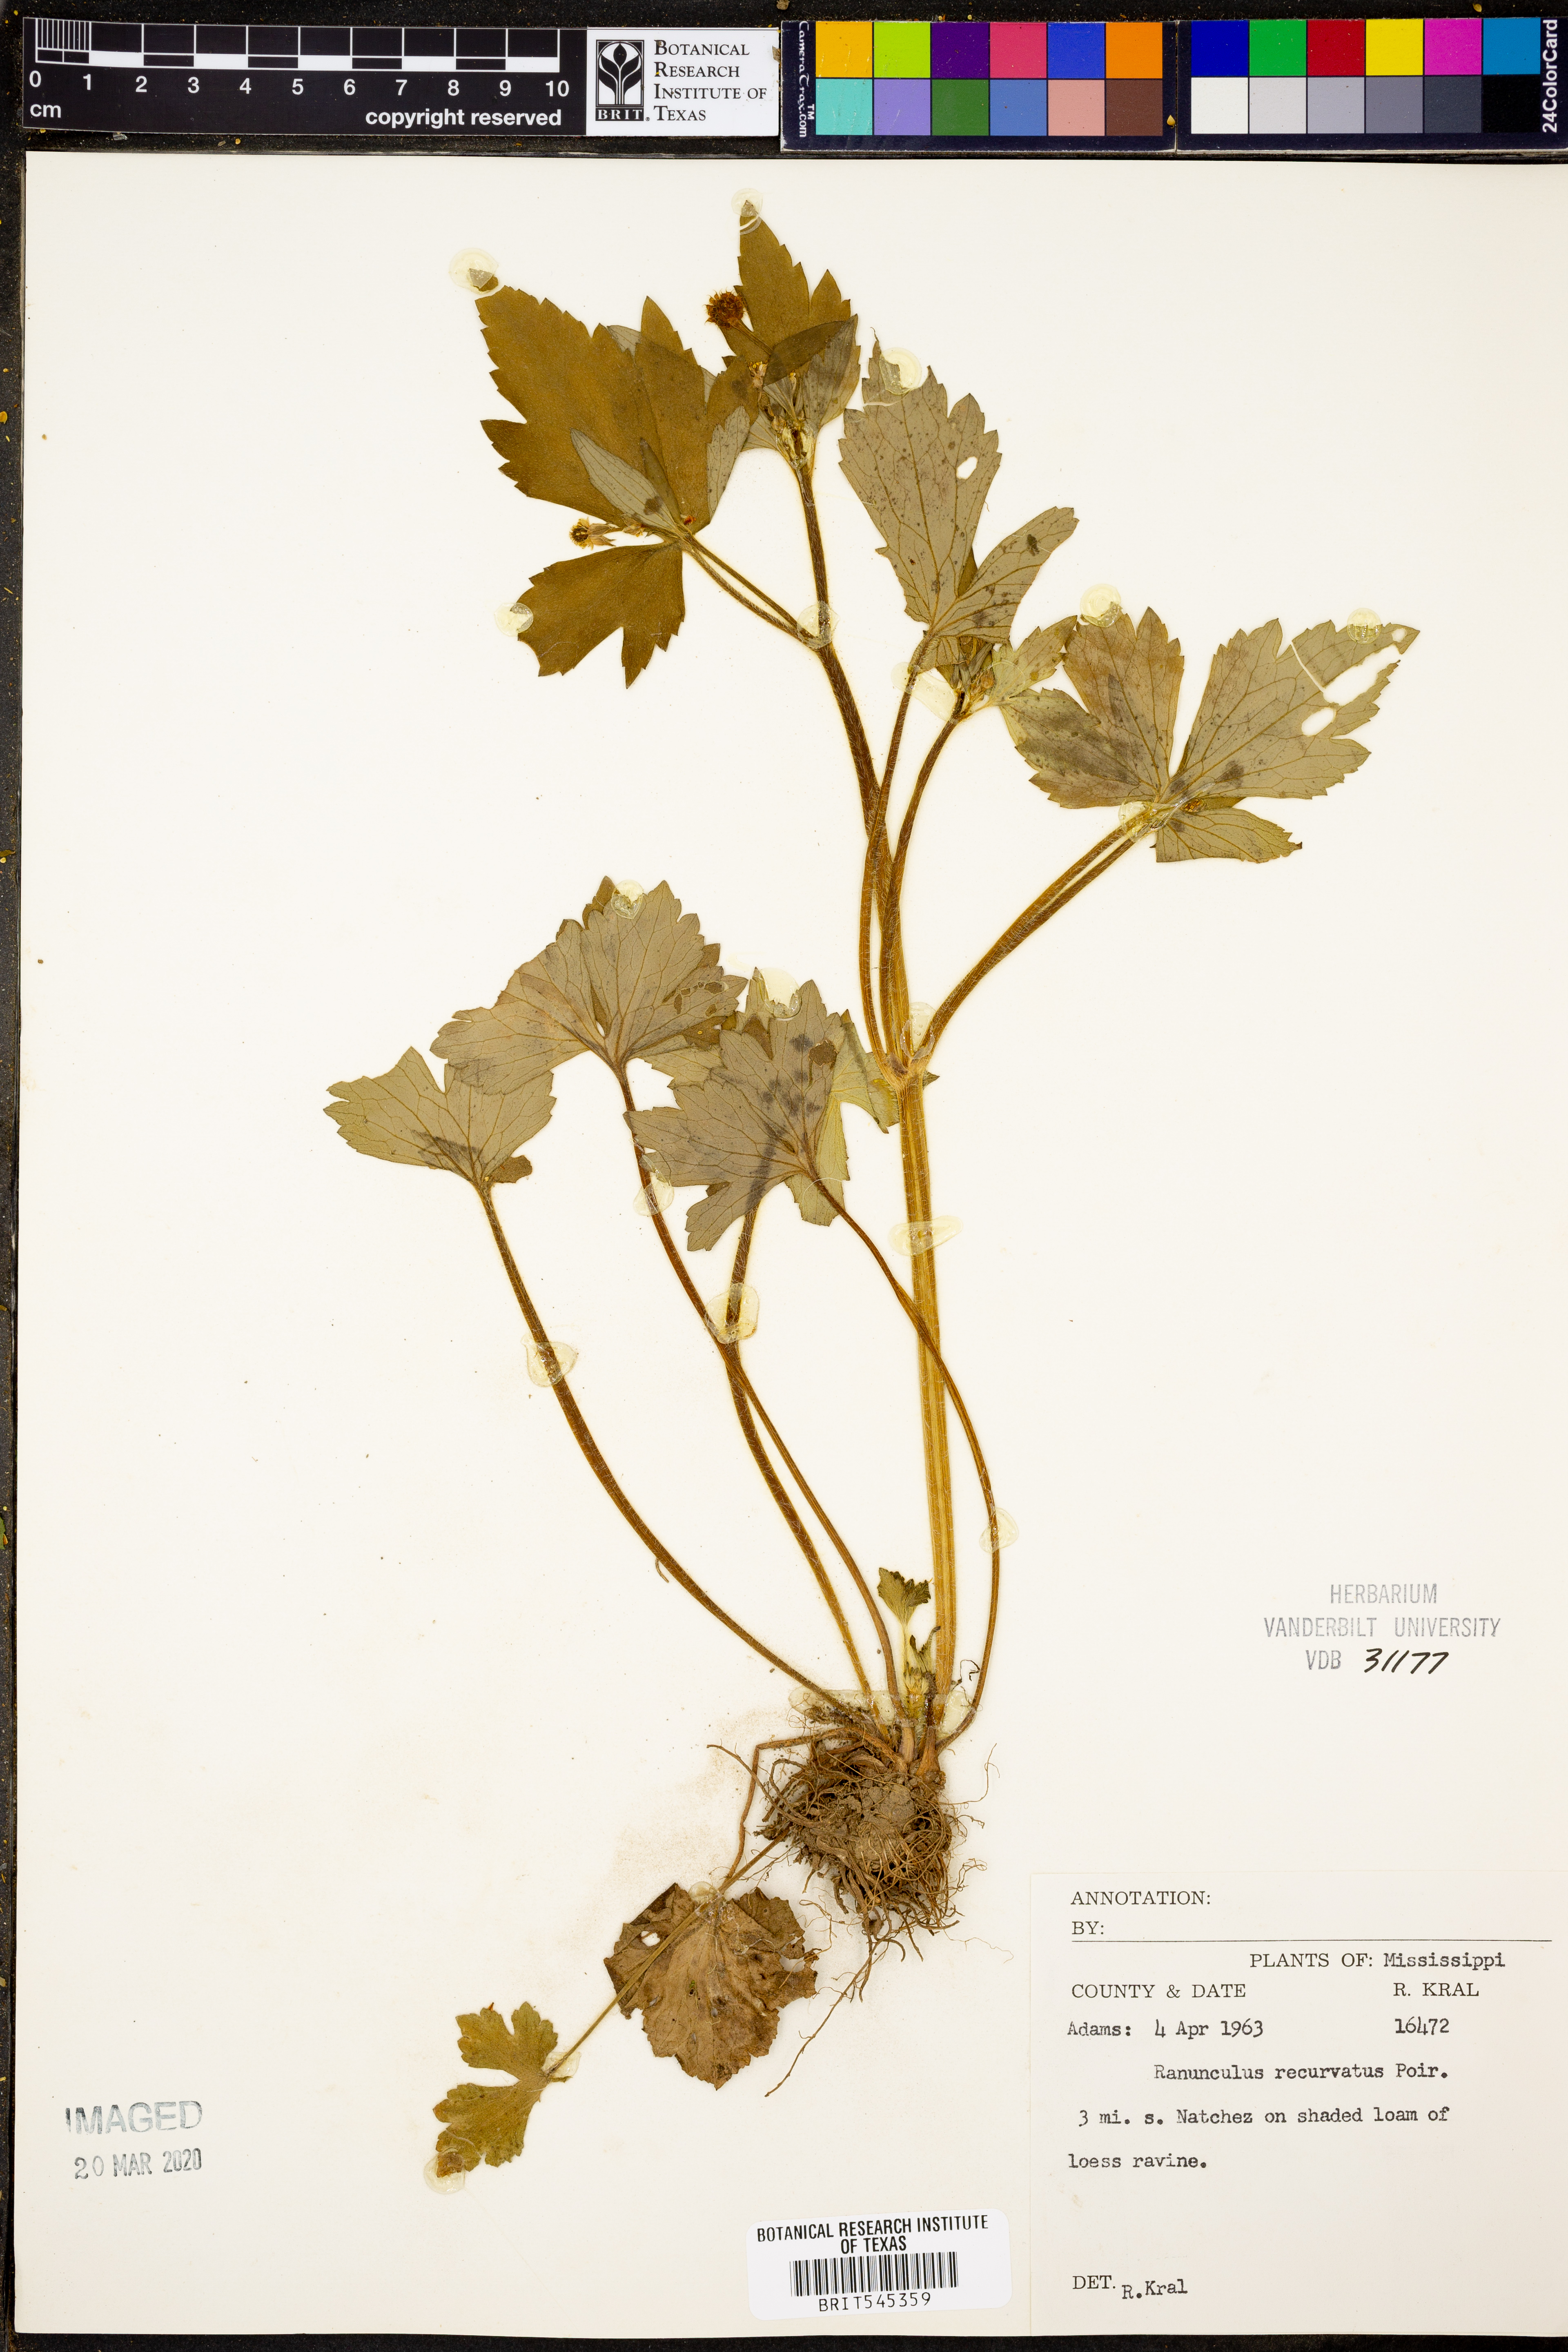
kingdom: Plantae
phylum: Tracheophyta
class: Magnoliopsida
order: Ranunculales
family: Ranunculaceae
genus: Ranunculus
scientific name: Ranunculus recurvatus
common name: Blisterwort
